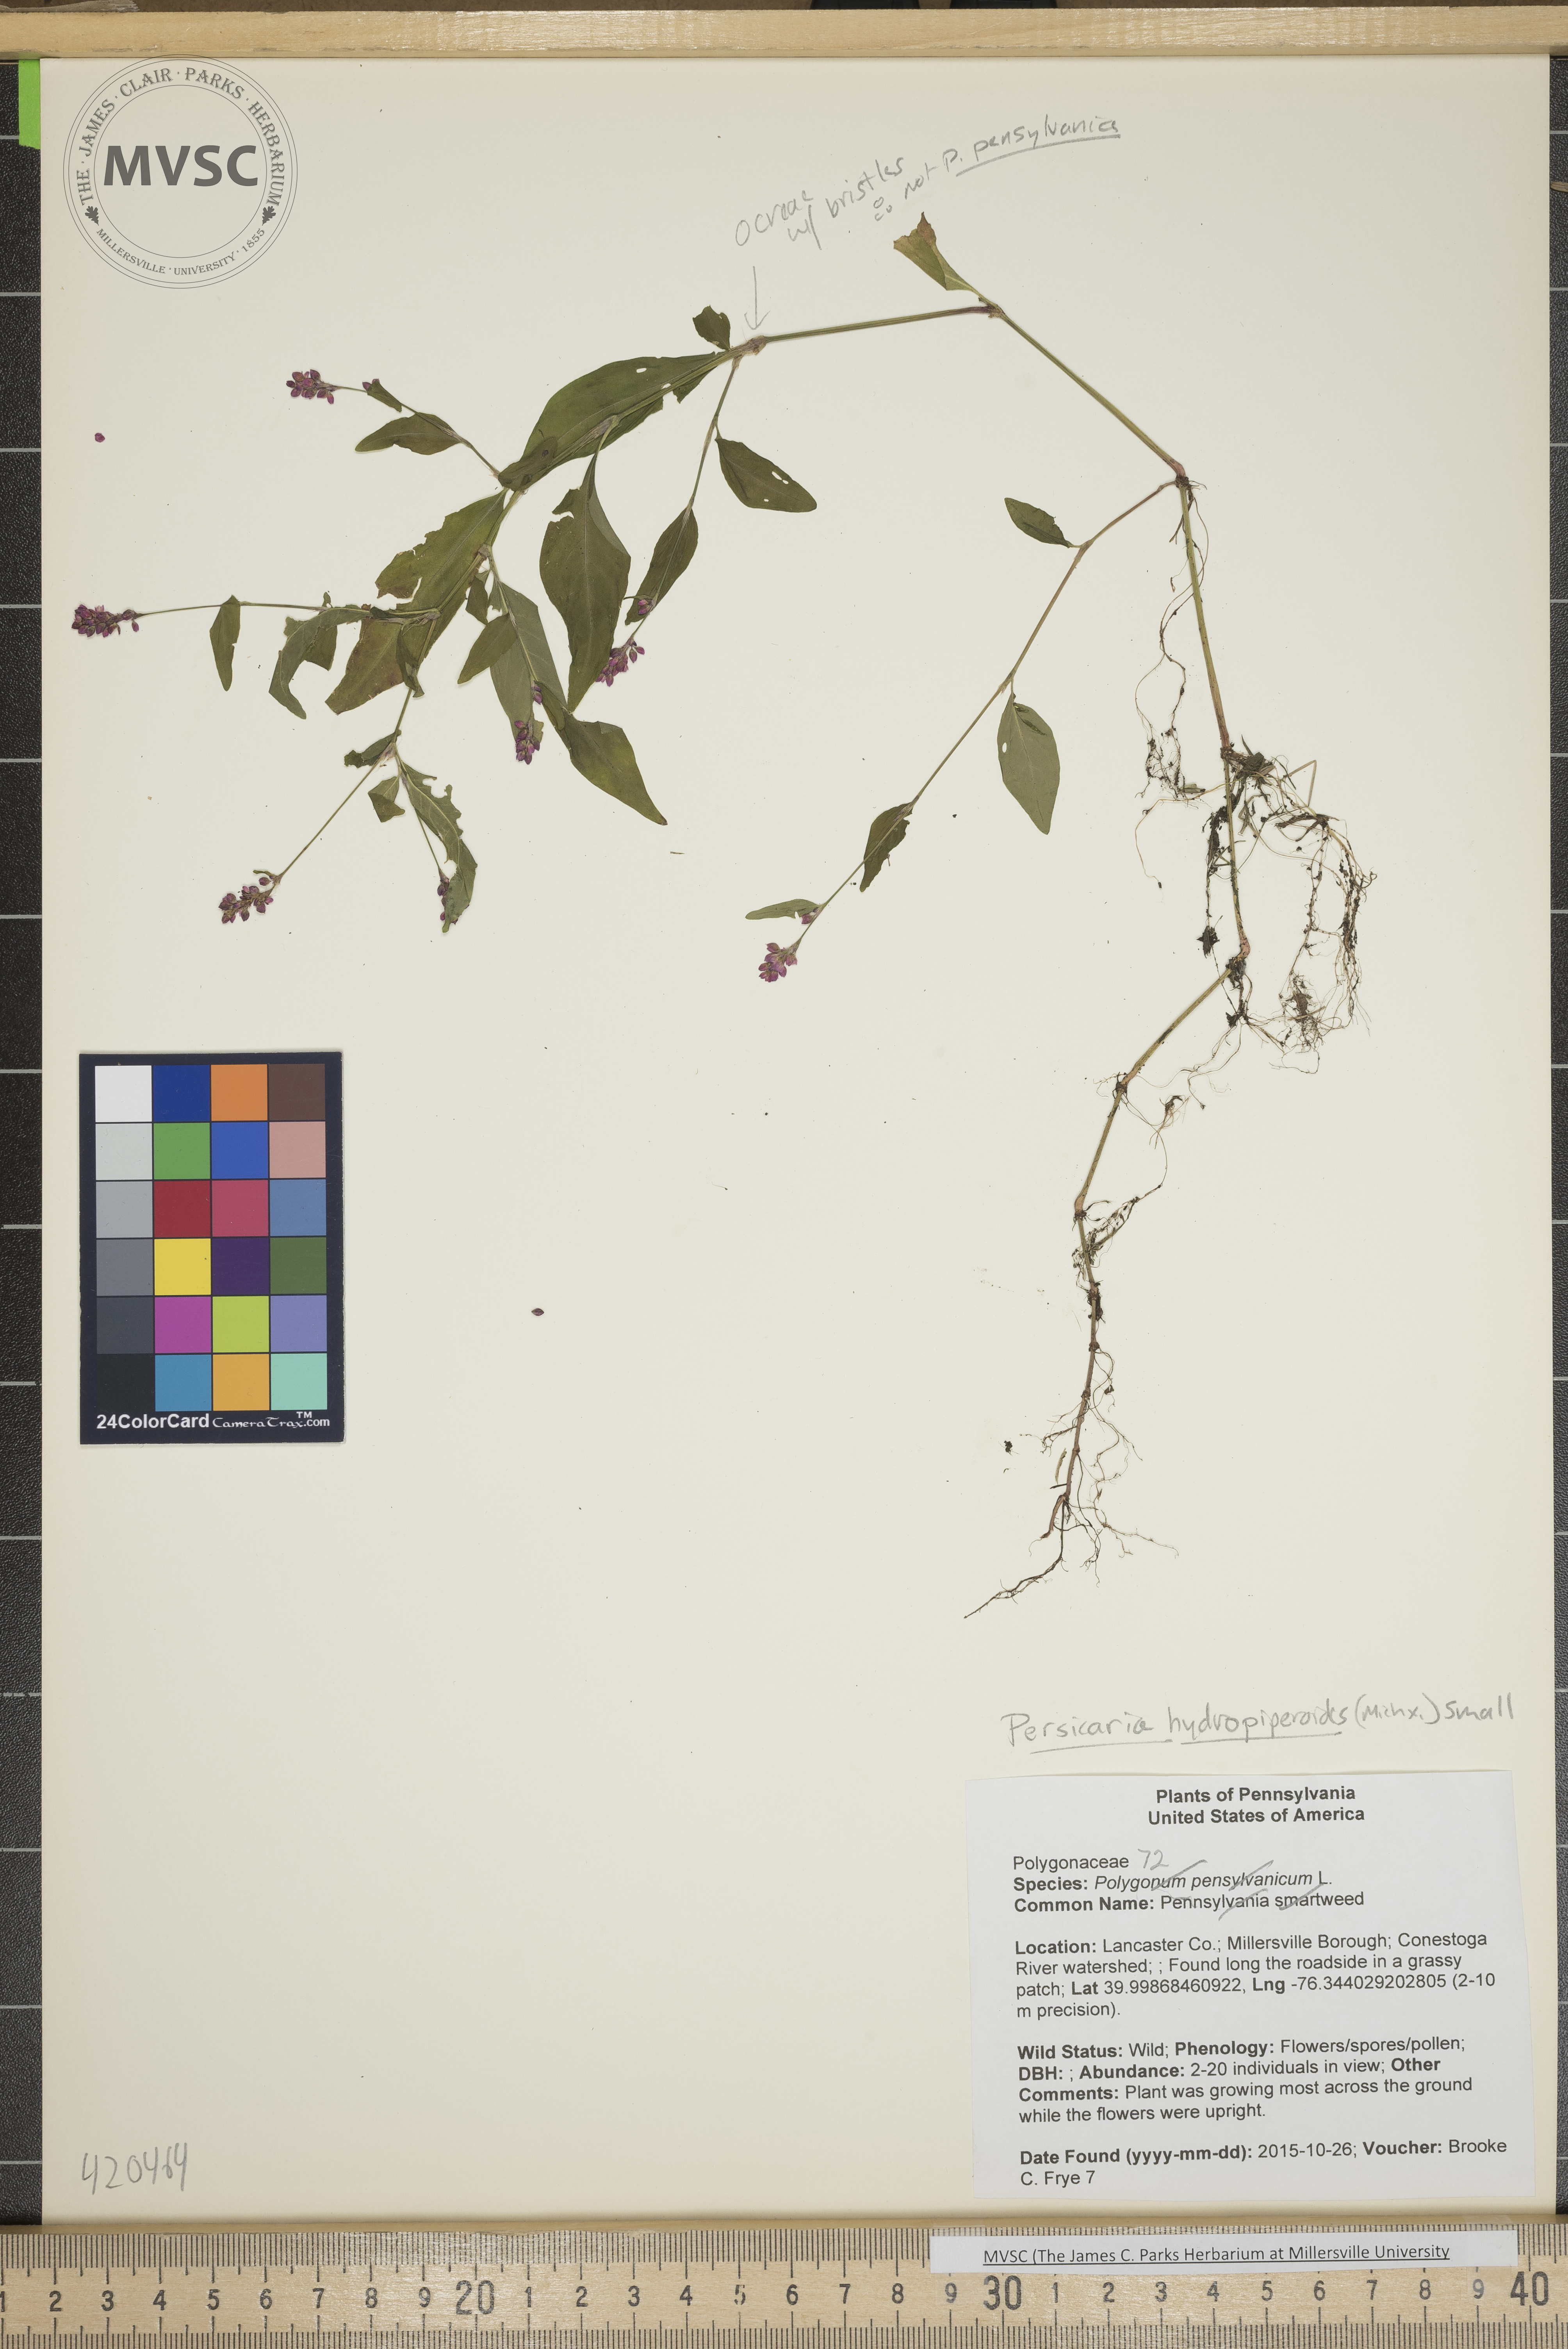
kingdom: Plantae
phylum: Tracheophyta
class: Magnoliopsida
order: Caryophyllales
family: Polygonaceae
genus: Persicaria
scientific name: Persicaria hydropiperoides
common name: Pennsylvania smartweed
